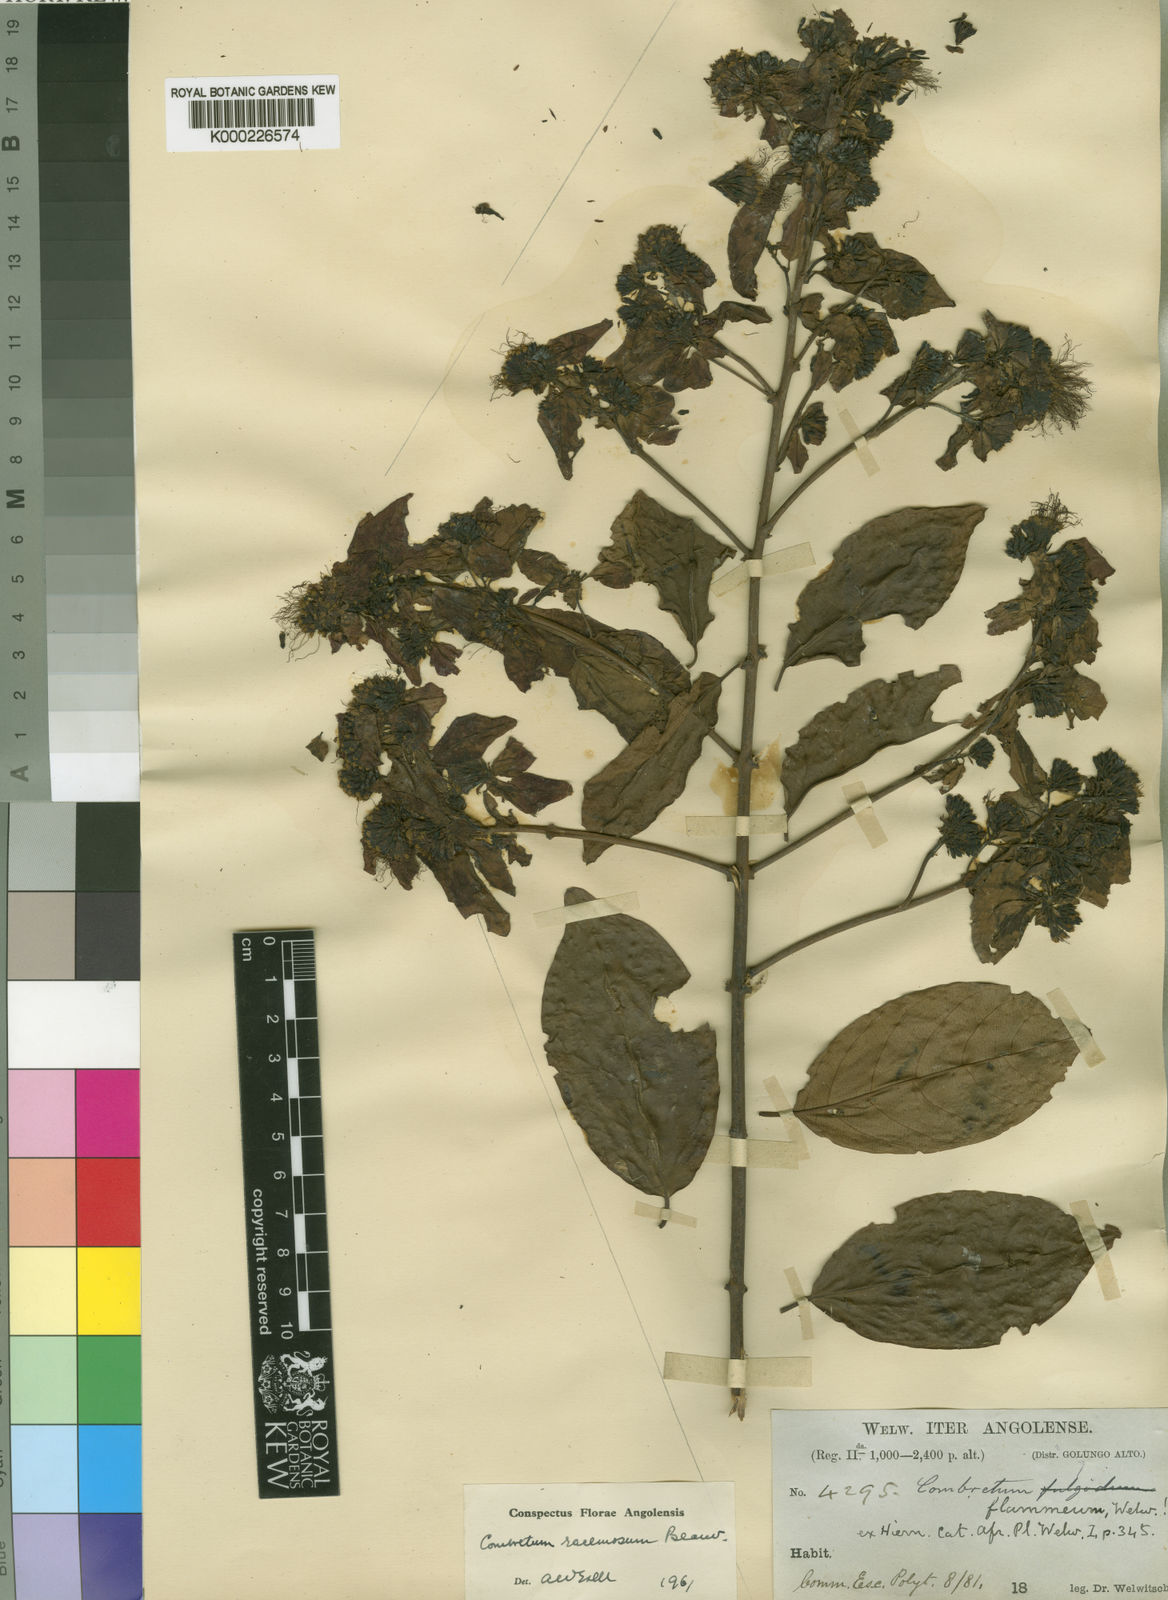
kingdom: Plantae
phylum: Tracheophyta
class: Magnoliopsida
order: Myrtales
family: Combretaceae
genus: Combretum
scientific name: Combretum racemosum
